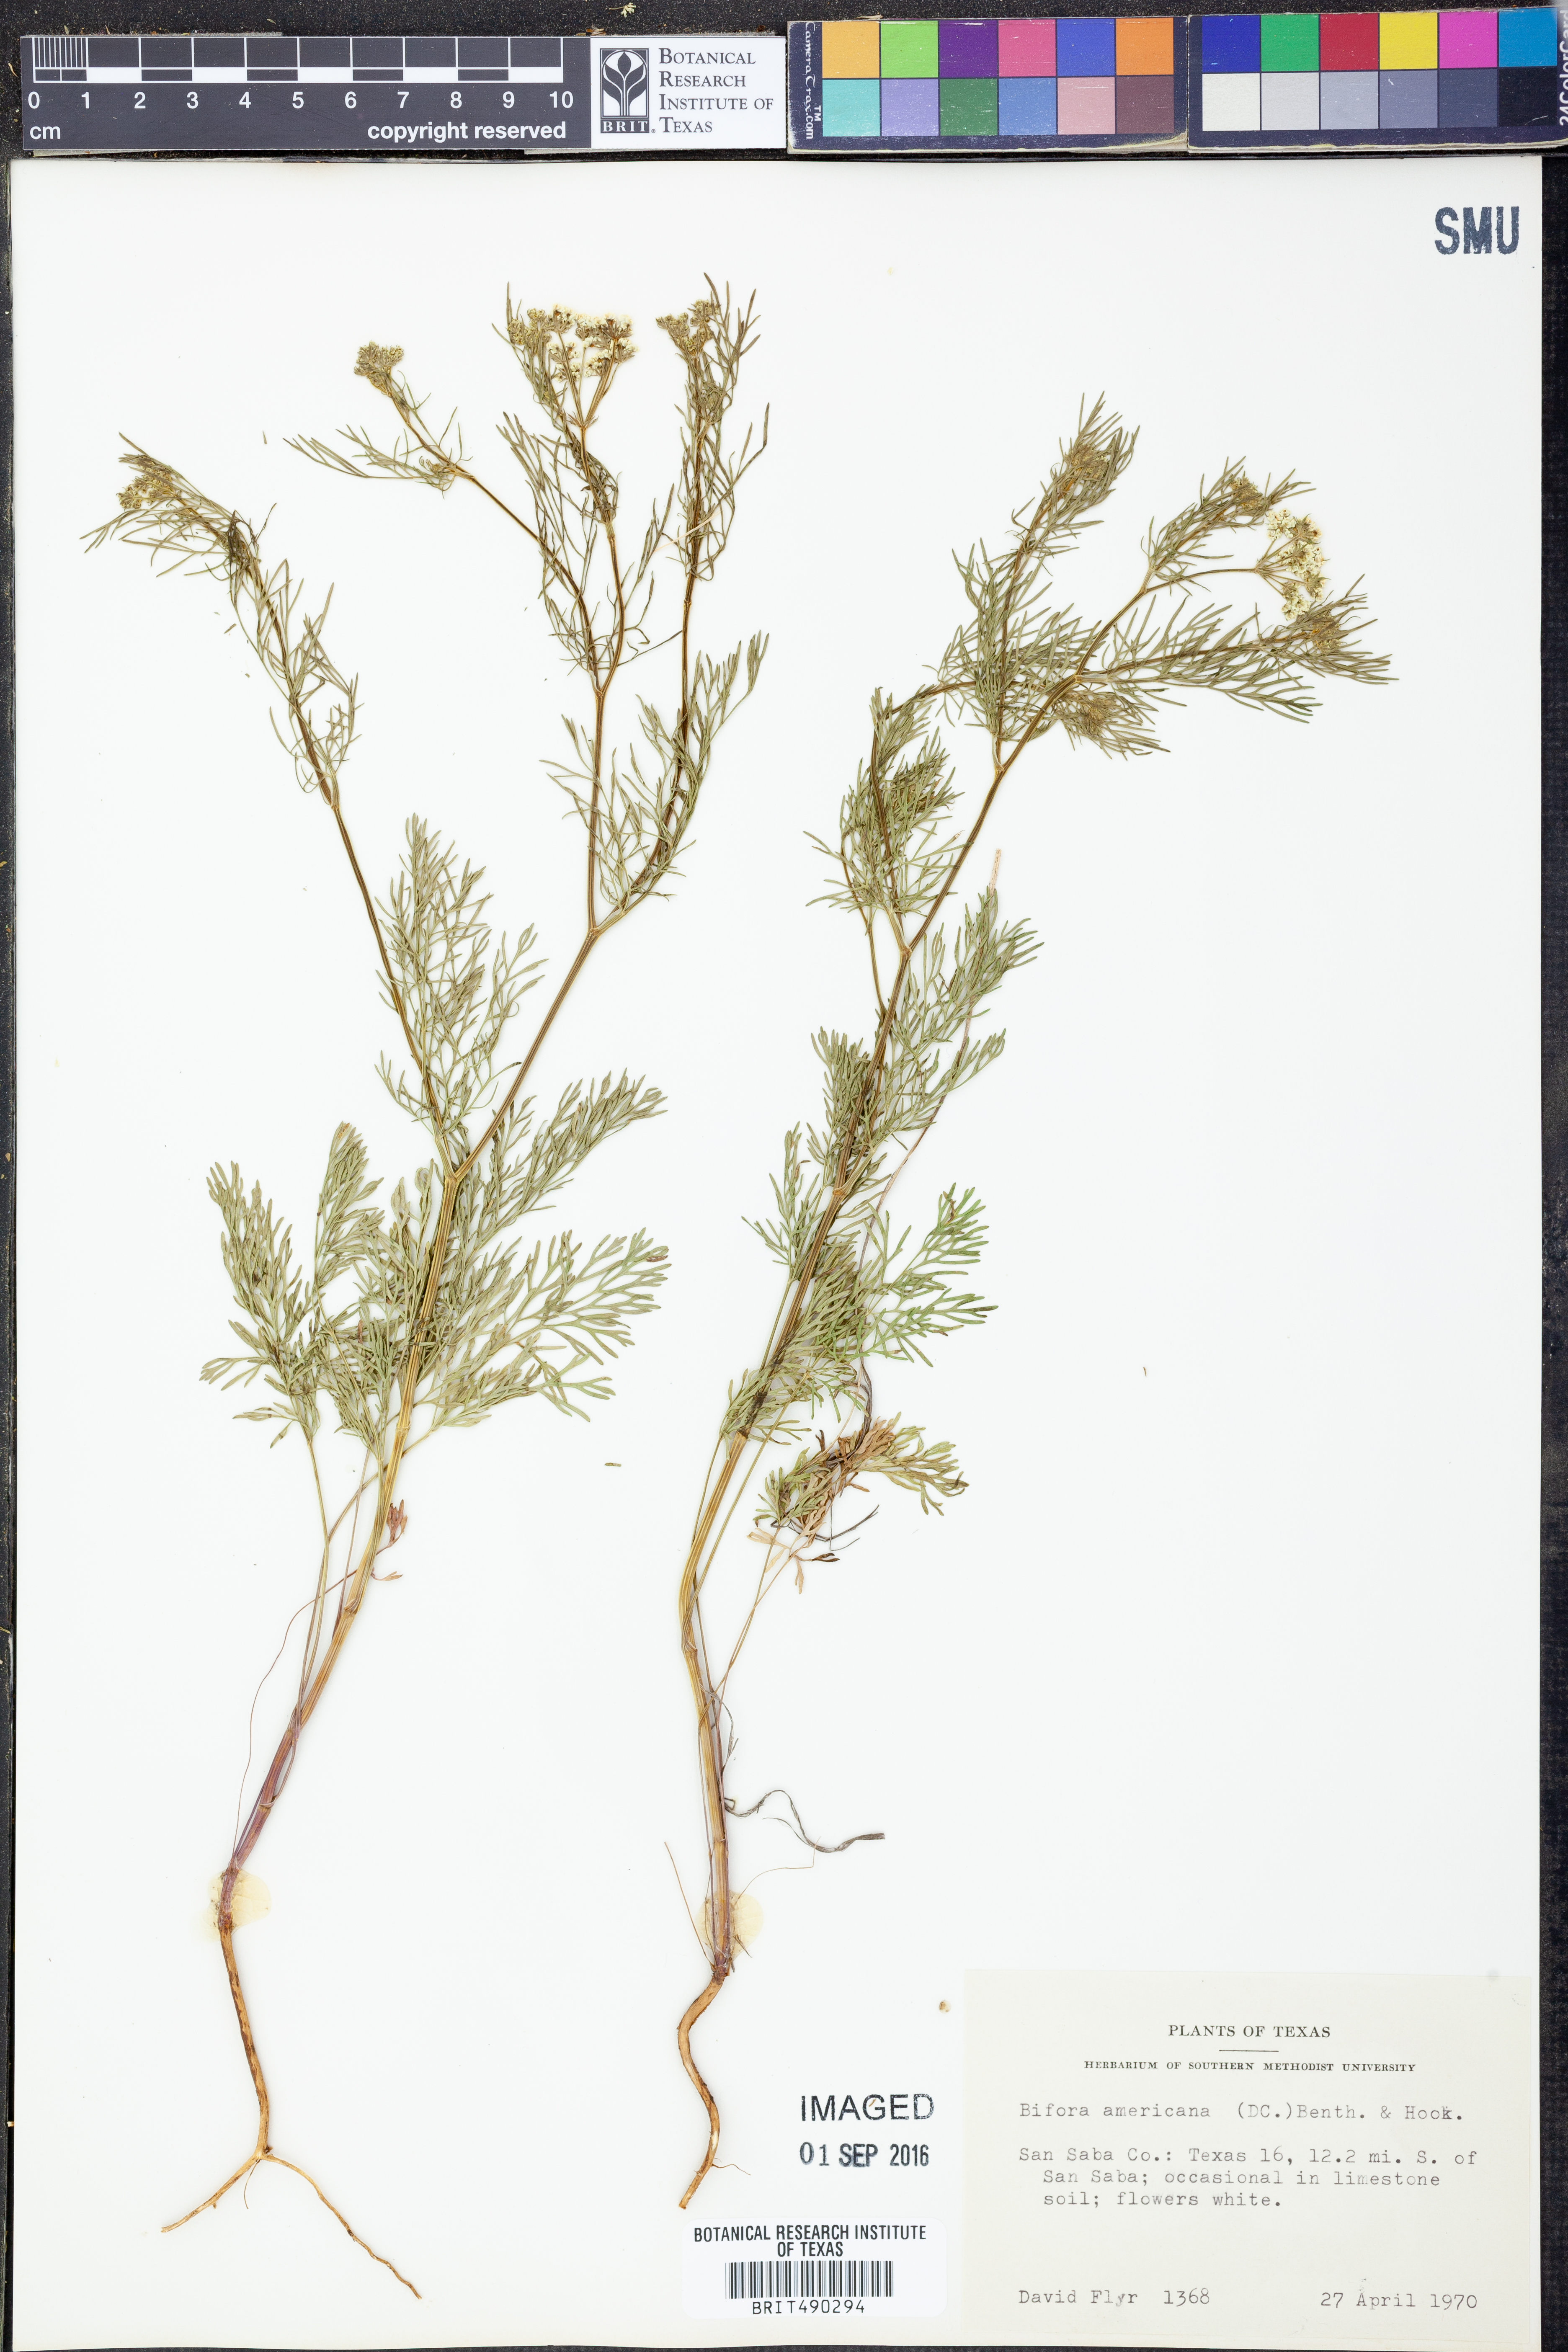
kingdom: Plantae
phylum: Tracheophyta
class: Magnoliopsida
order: Apiales
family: Apiaceae
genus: Atrema
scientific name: Atrema americanum
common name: Prairie-bishop
